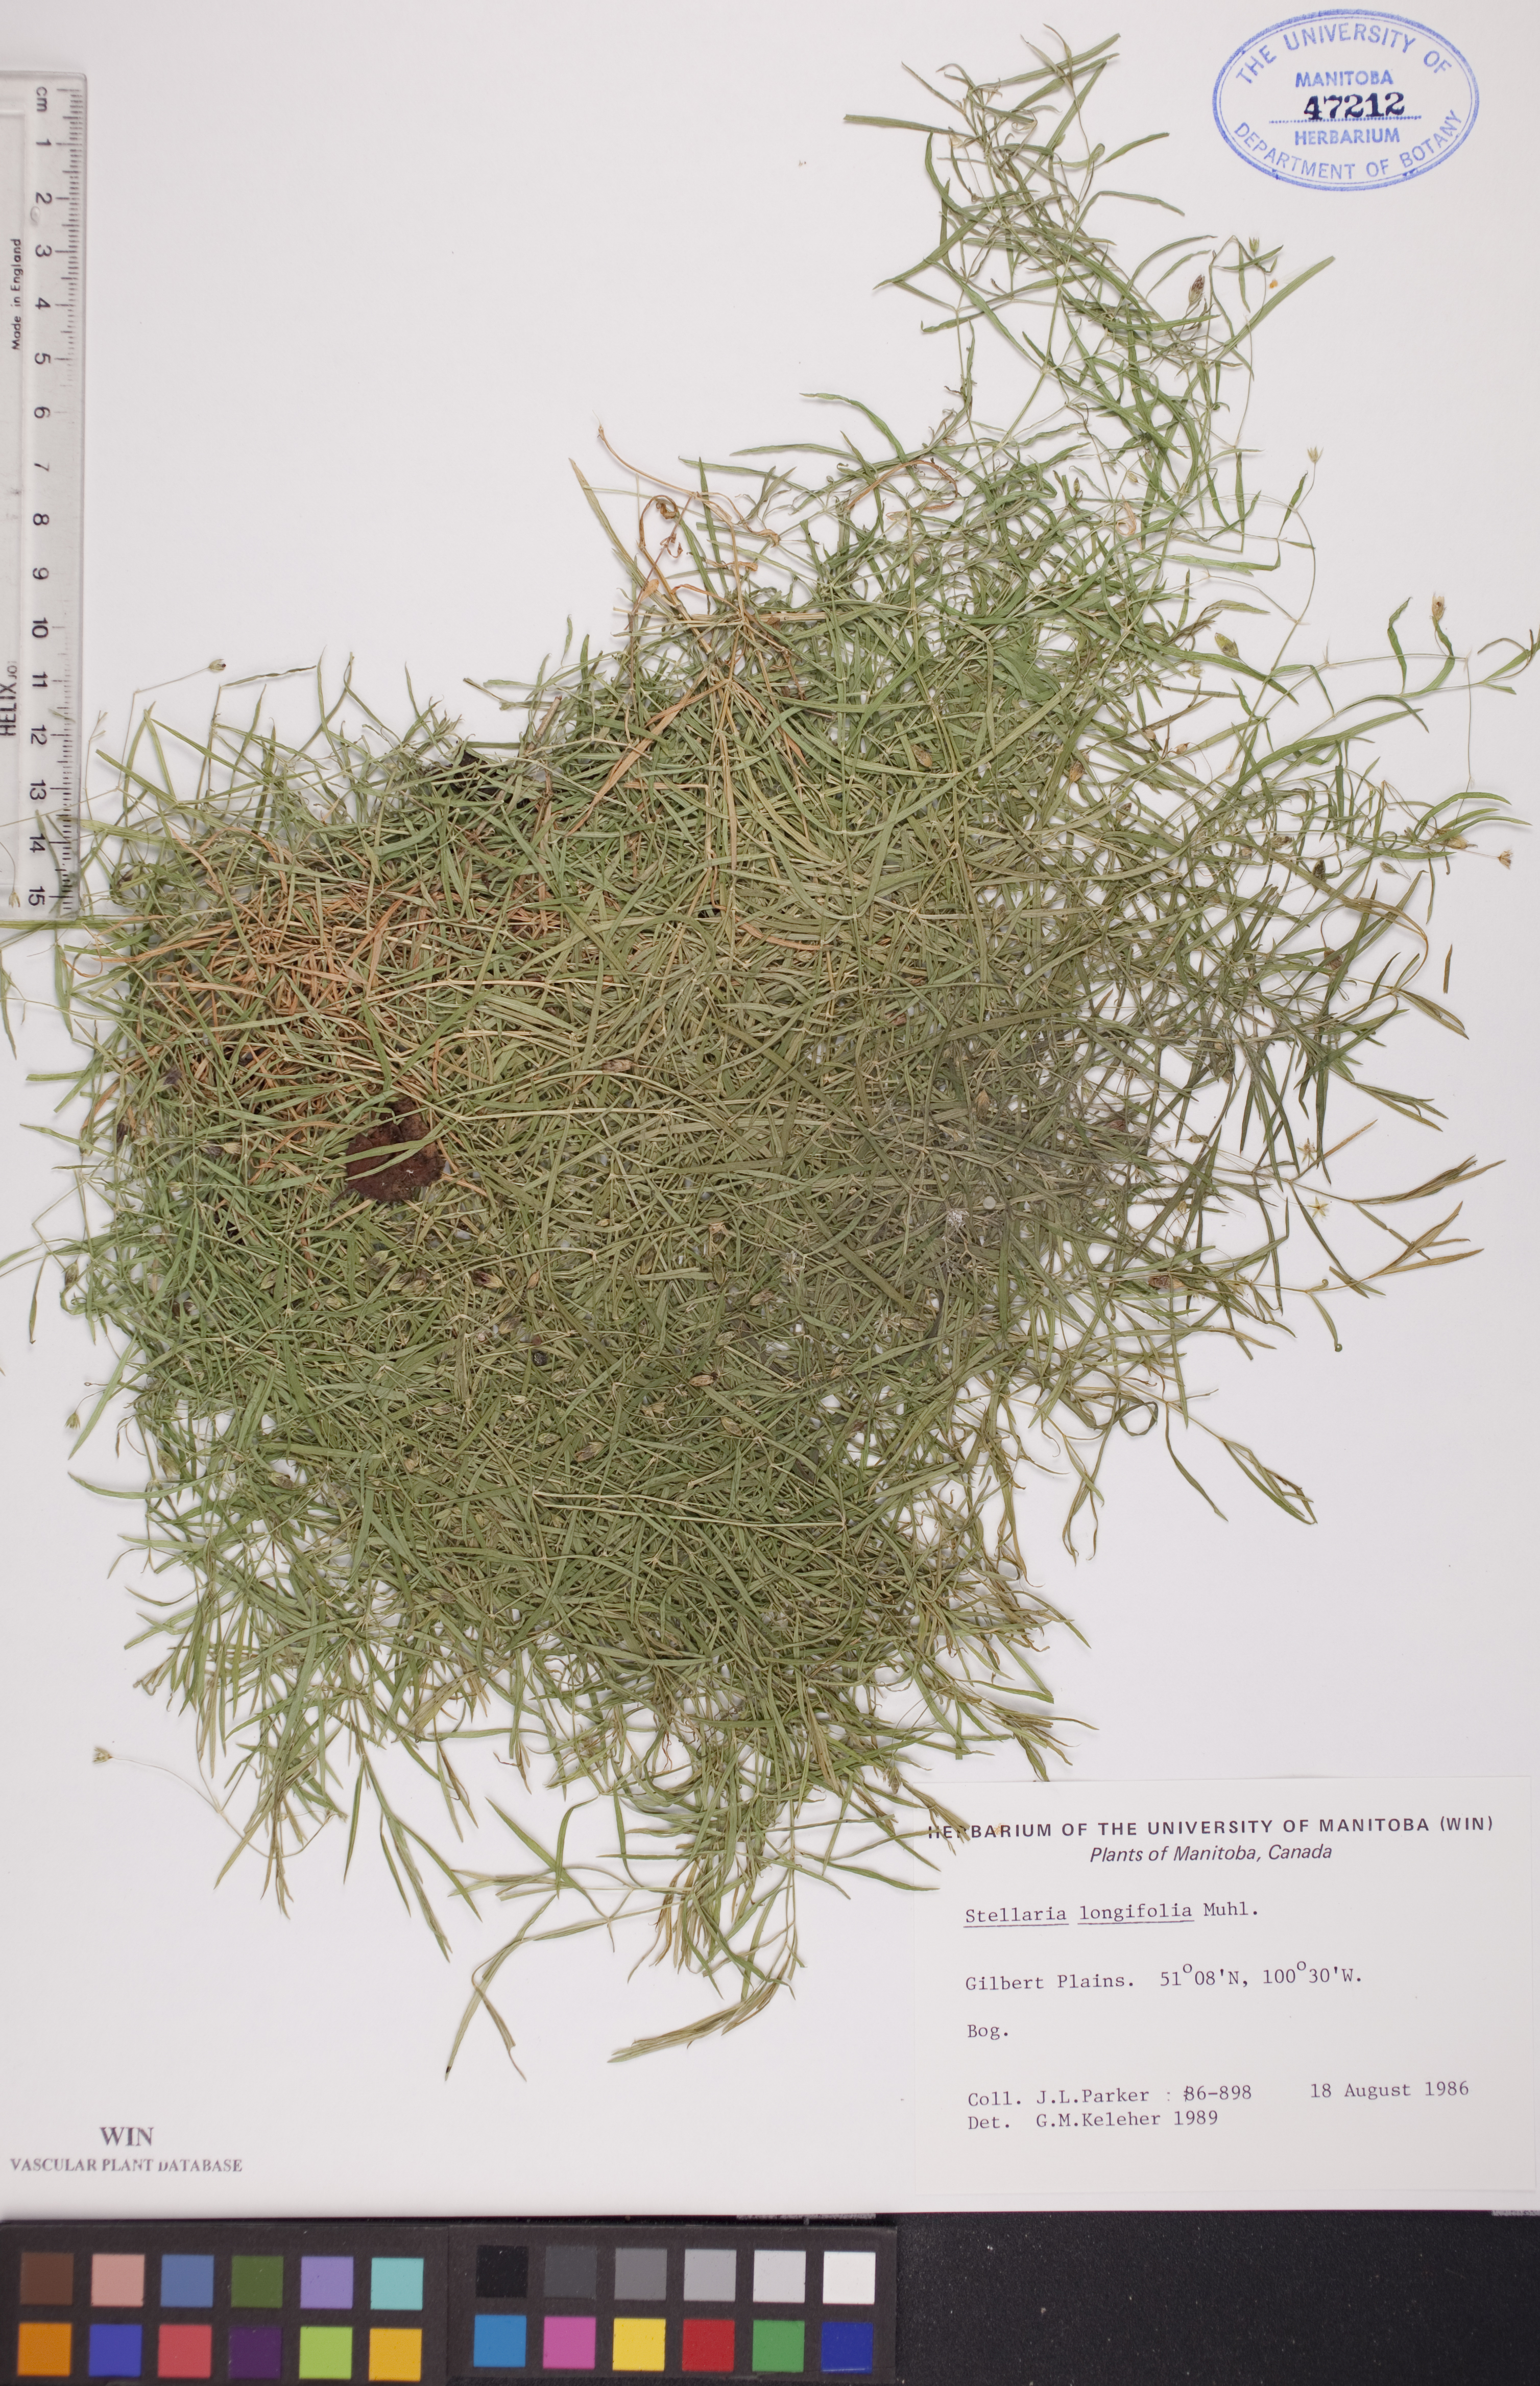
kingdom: Plantae
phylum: Tracheophyta
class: Magnoliopsida
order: Caryophyllales
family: Caryophyllaceae
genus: Stellaria
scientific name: Stellaria longifolia
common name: Long-leaved chickweed
